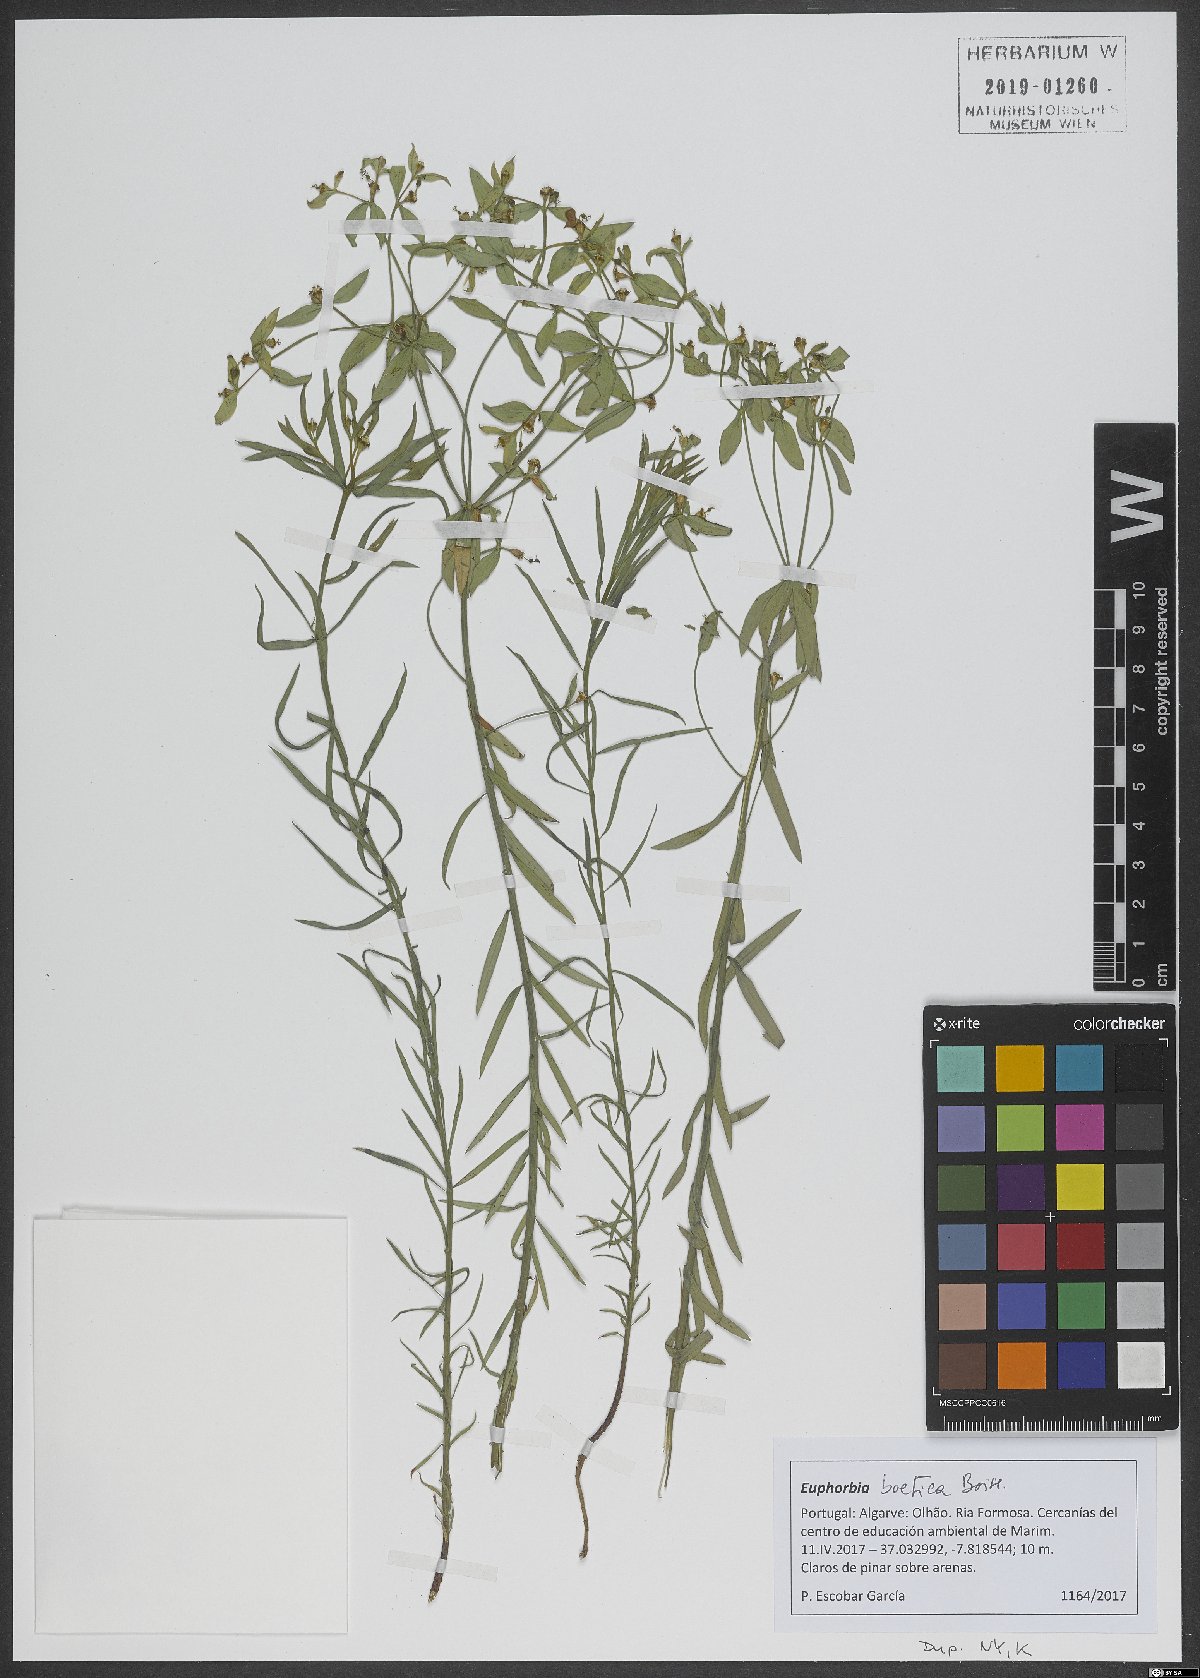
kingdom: Plantae
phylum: Tracheophyta
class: Magnoliopsida
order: Malpighiales
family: Euphorbiaceae
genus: Euphorbia
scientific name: Euphorbia boetica
